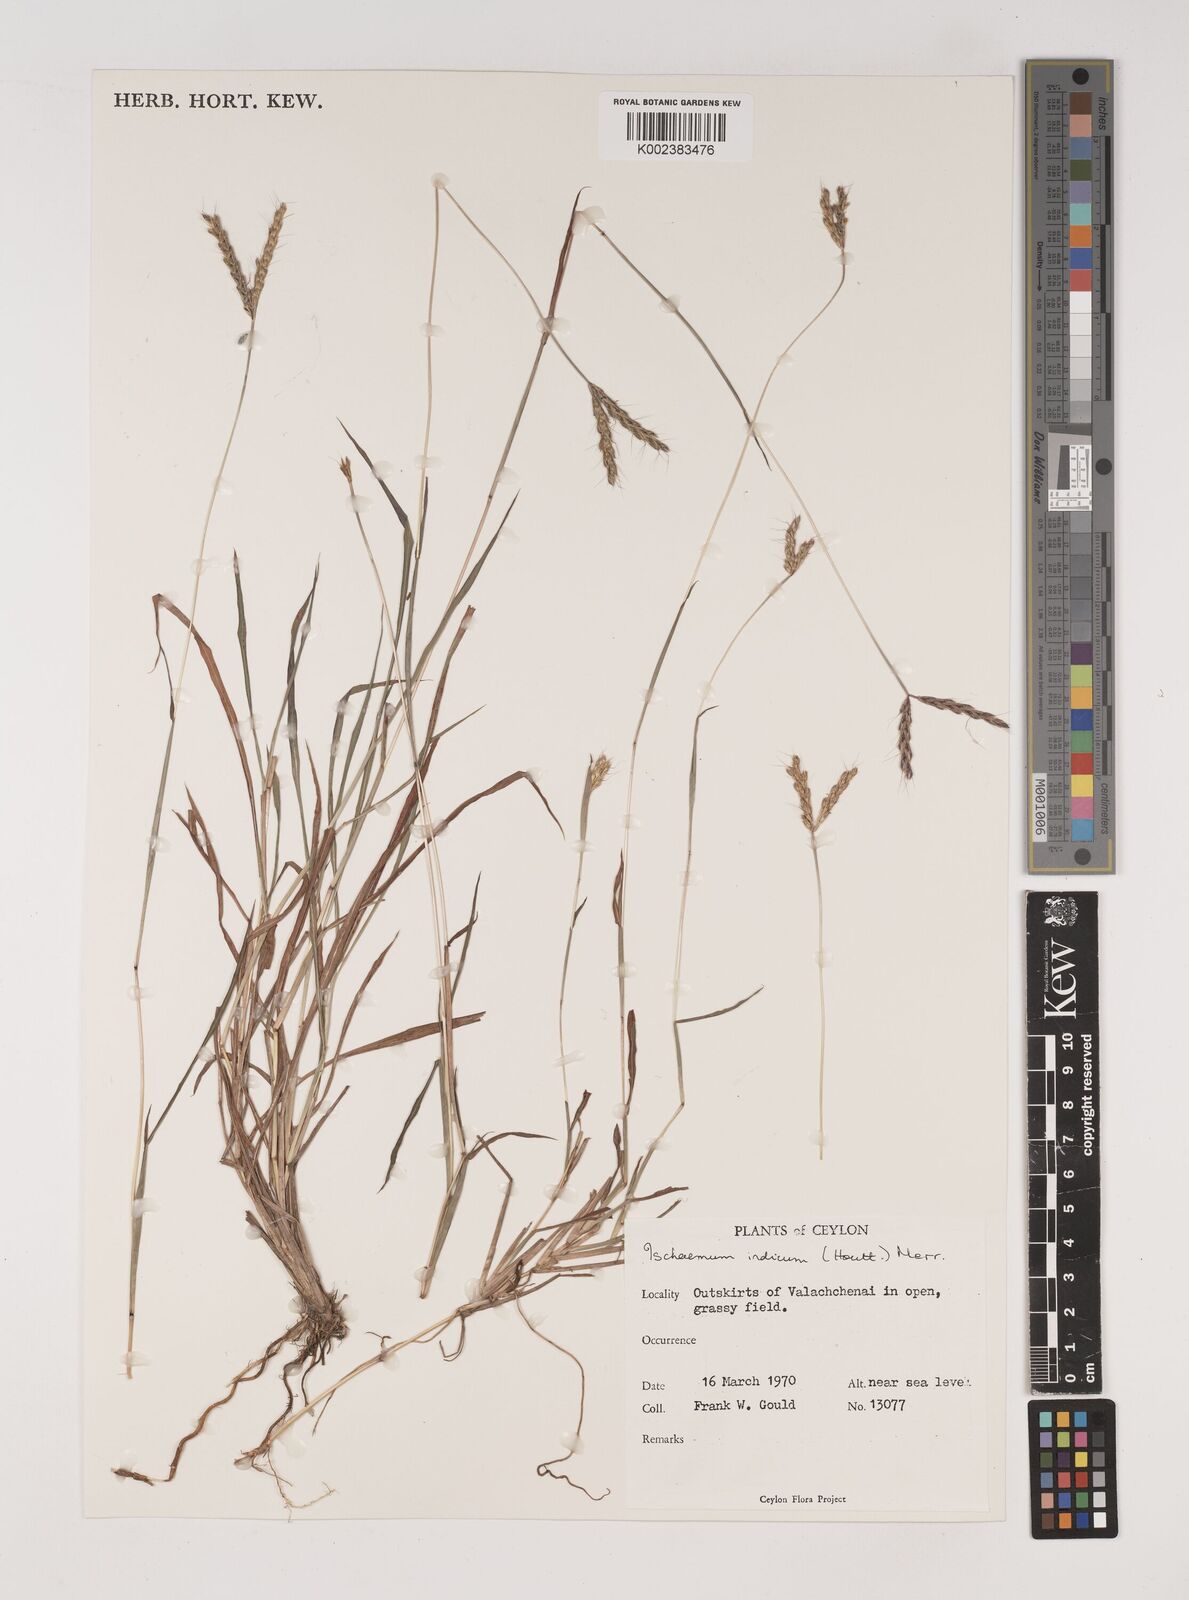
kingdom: Plantae
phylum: Tracheophyta
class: Liliopsida
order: Poales
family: Poaceae
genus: Polytrias
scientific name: Polytrias indica
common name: Indian murainagrass
